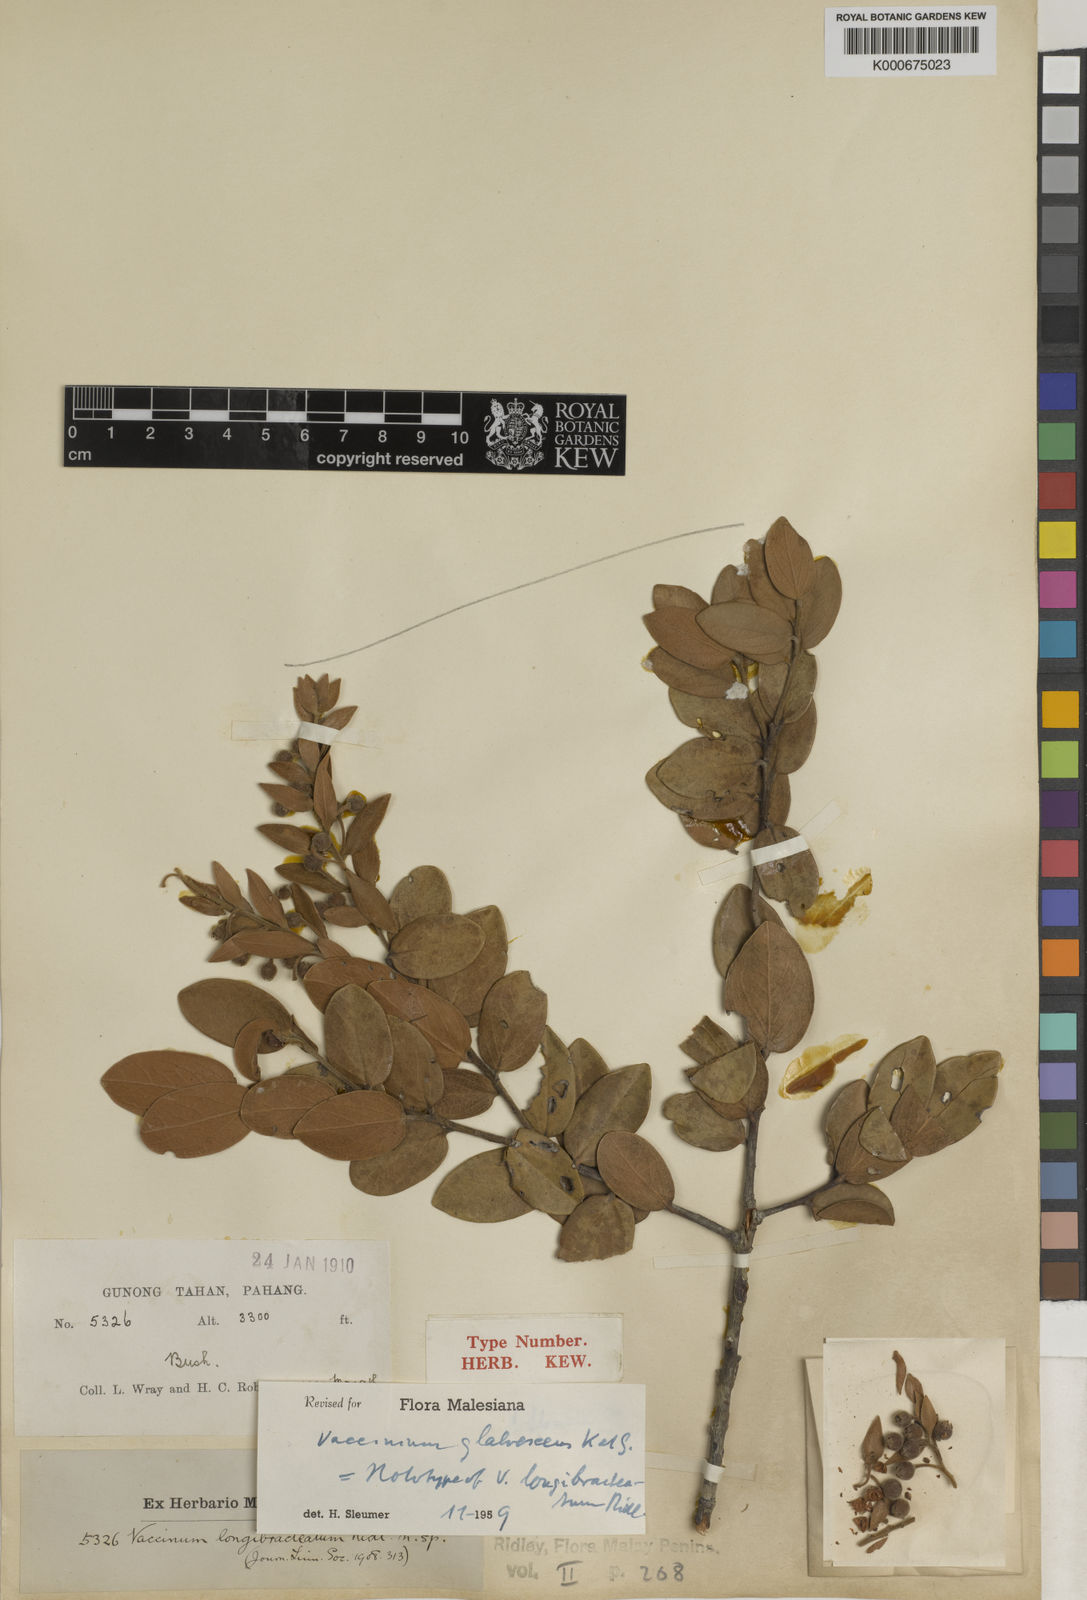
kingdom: Plantae
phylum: Tracheophyta
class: Magnoliopsida
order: Ericales
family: Ericaceae
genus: Vaccinium
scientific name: Vaccinium glabrescens
